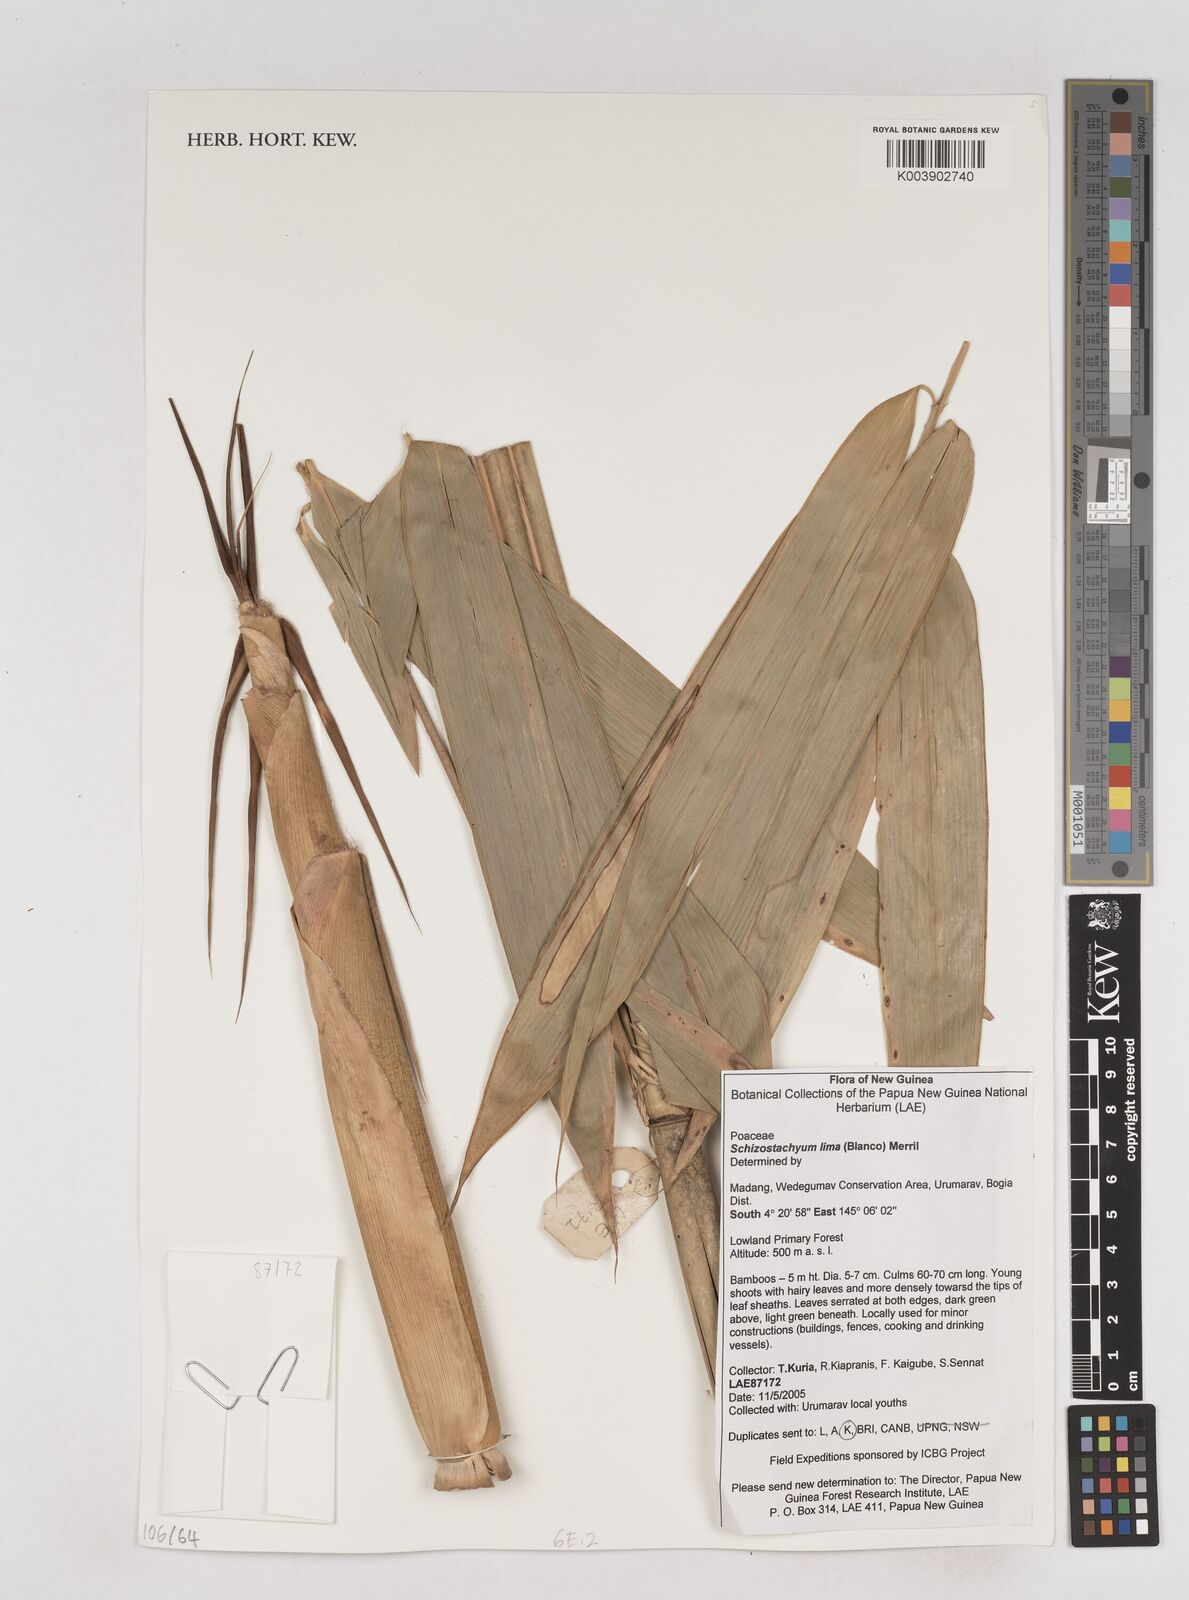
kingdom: Plantae
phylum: Tracheophyta
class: Liliopsida
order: Poales
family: Poaceae
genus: Schizostachyum
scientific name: Schizostachyum lima
